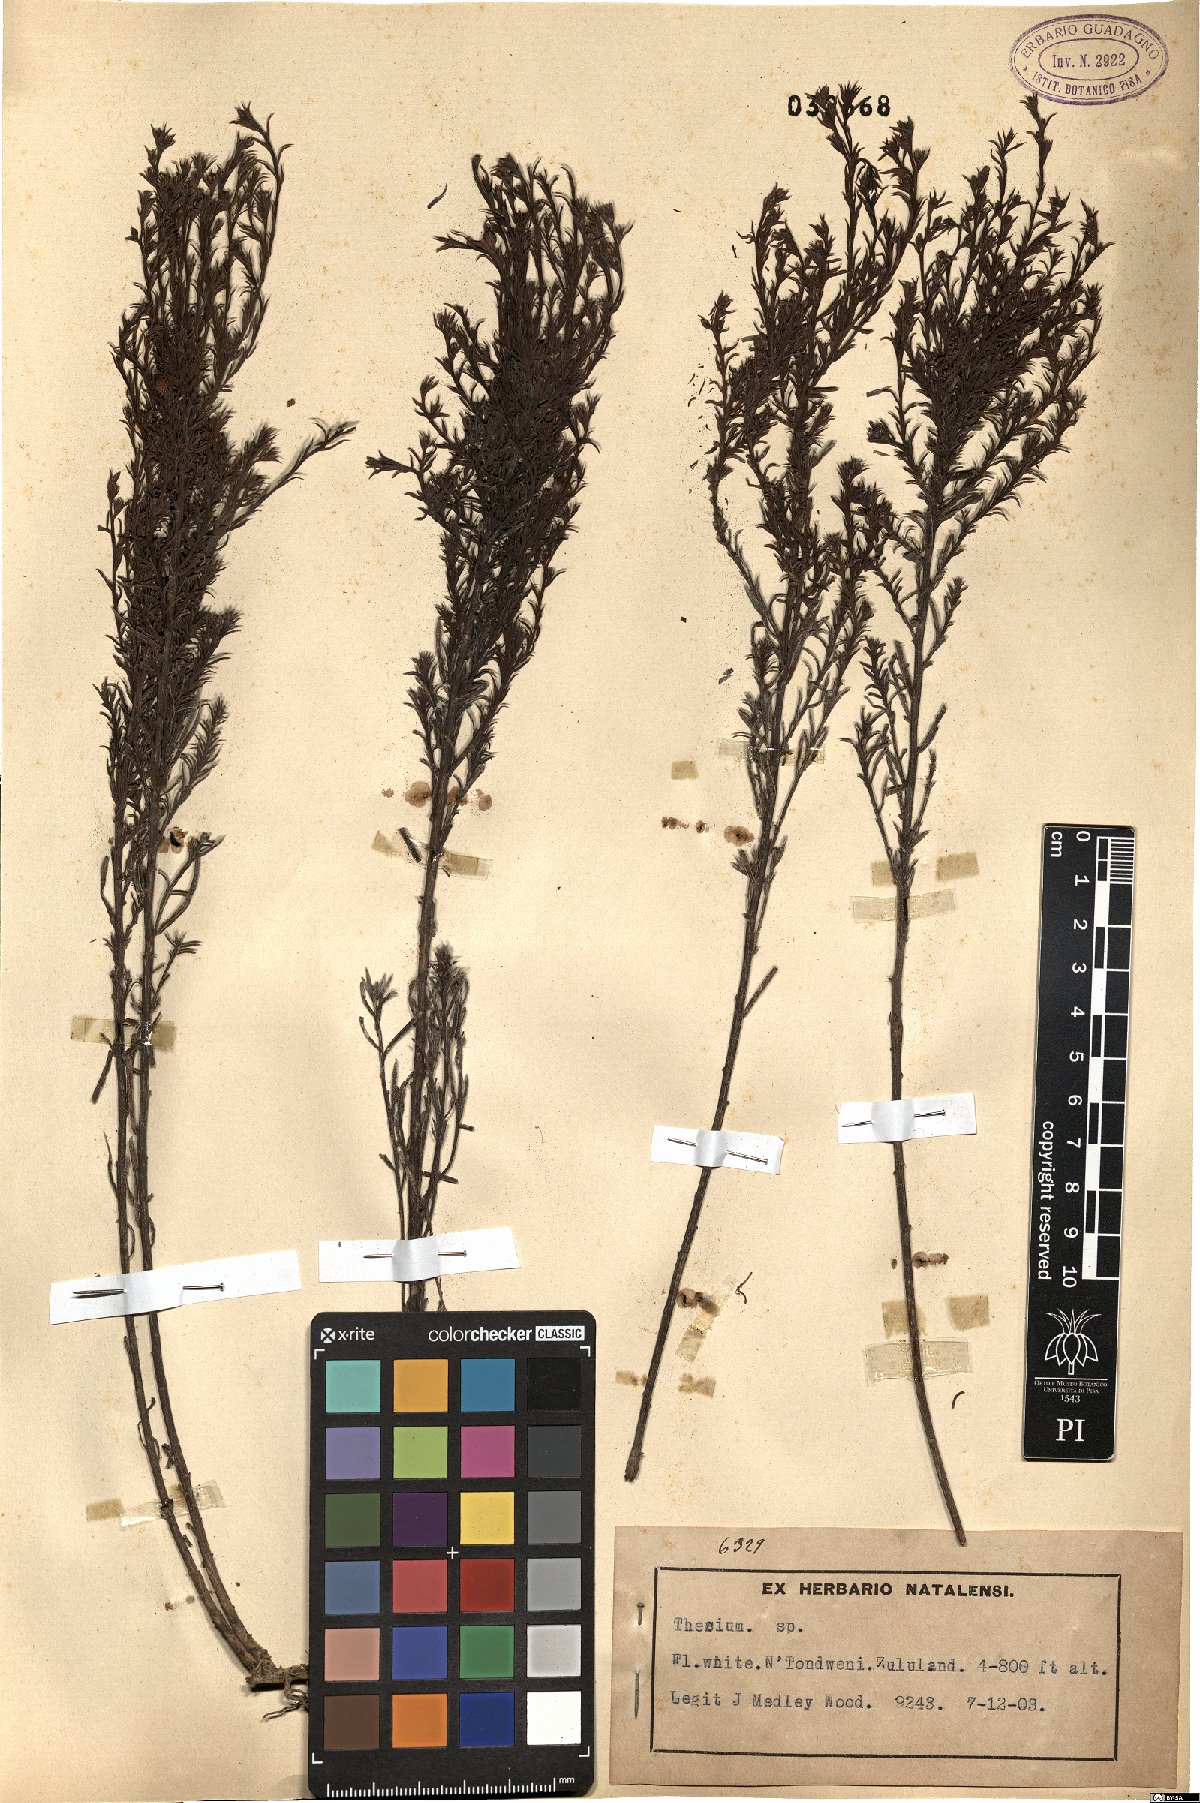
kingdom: Plantae
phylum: Tracheophyta
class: Magnoliopsida
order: Santalales
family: Thesiaceae
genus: Thesium
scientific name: Thesium
